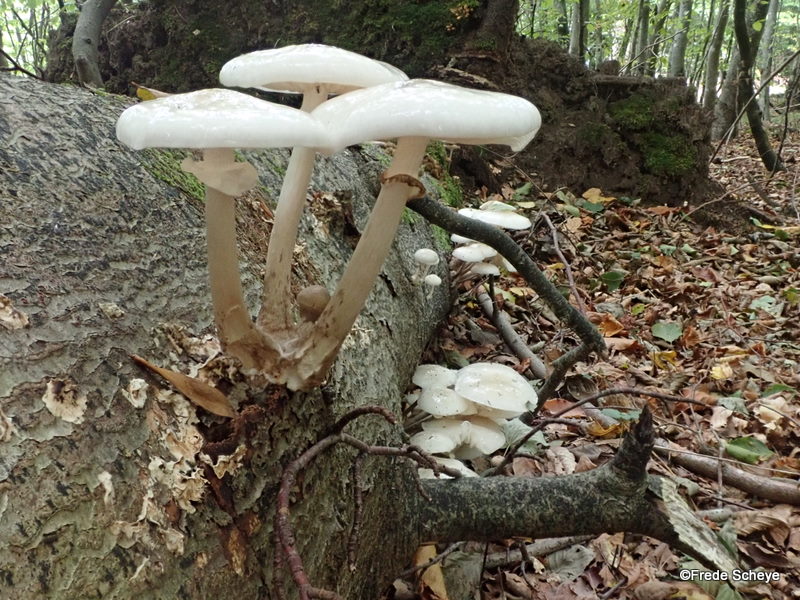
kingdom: Fungi
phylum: Basidiomycota
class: Agaricomycetes
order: Agaricales
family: Physalacriaceae
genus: Mucidula
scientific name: Mucidula mucida
